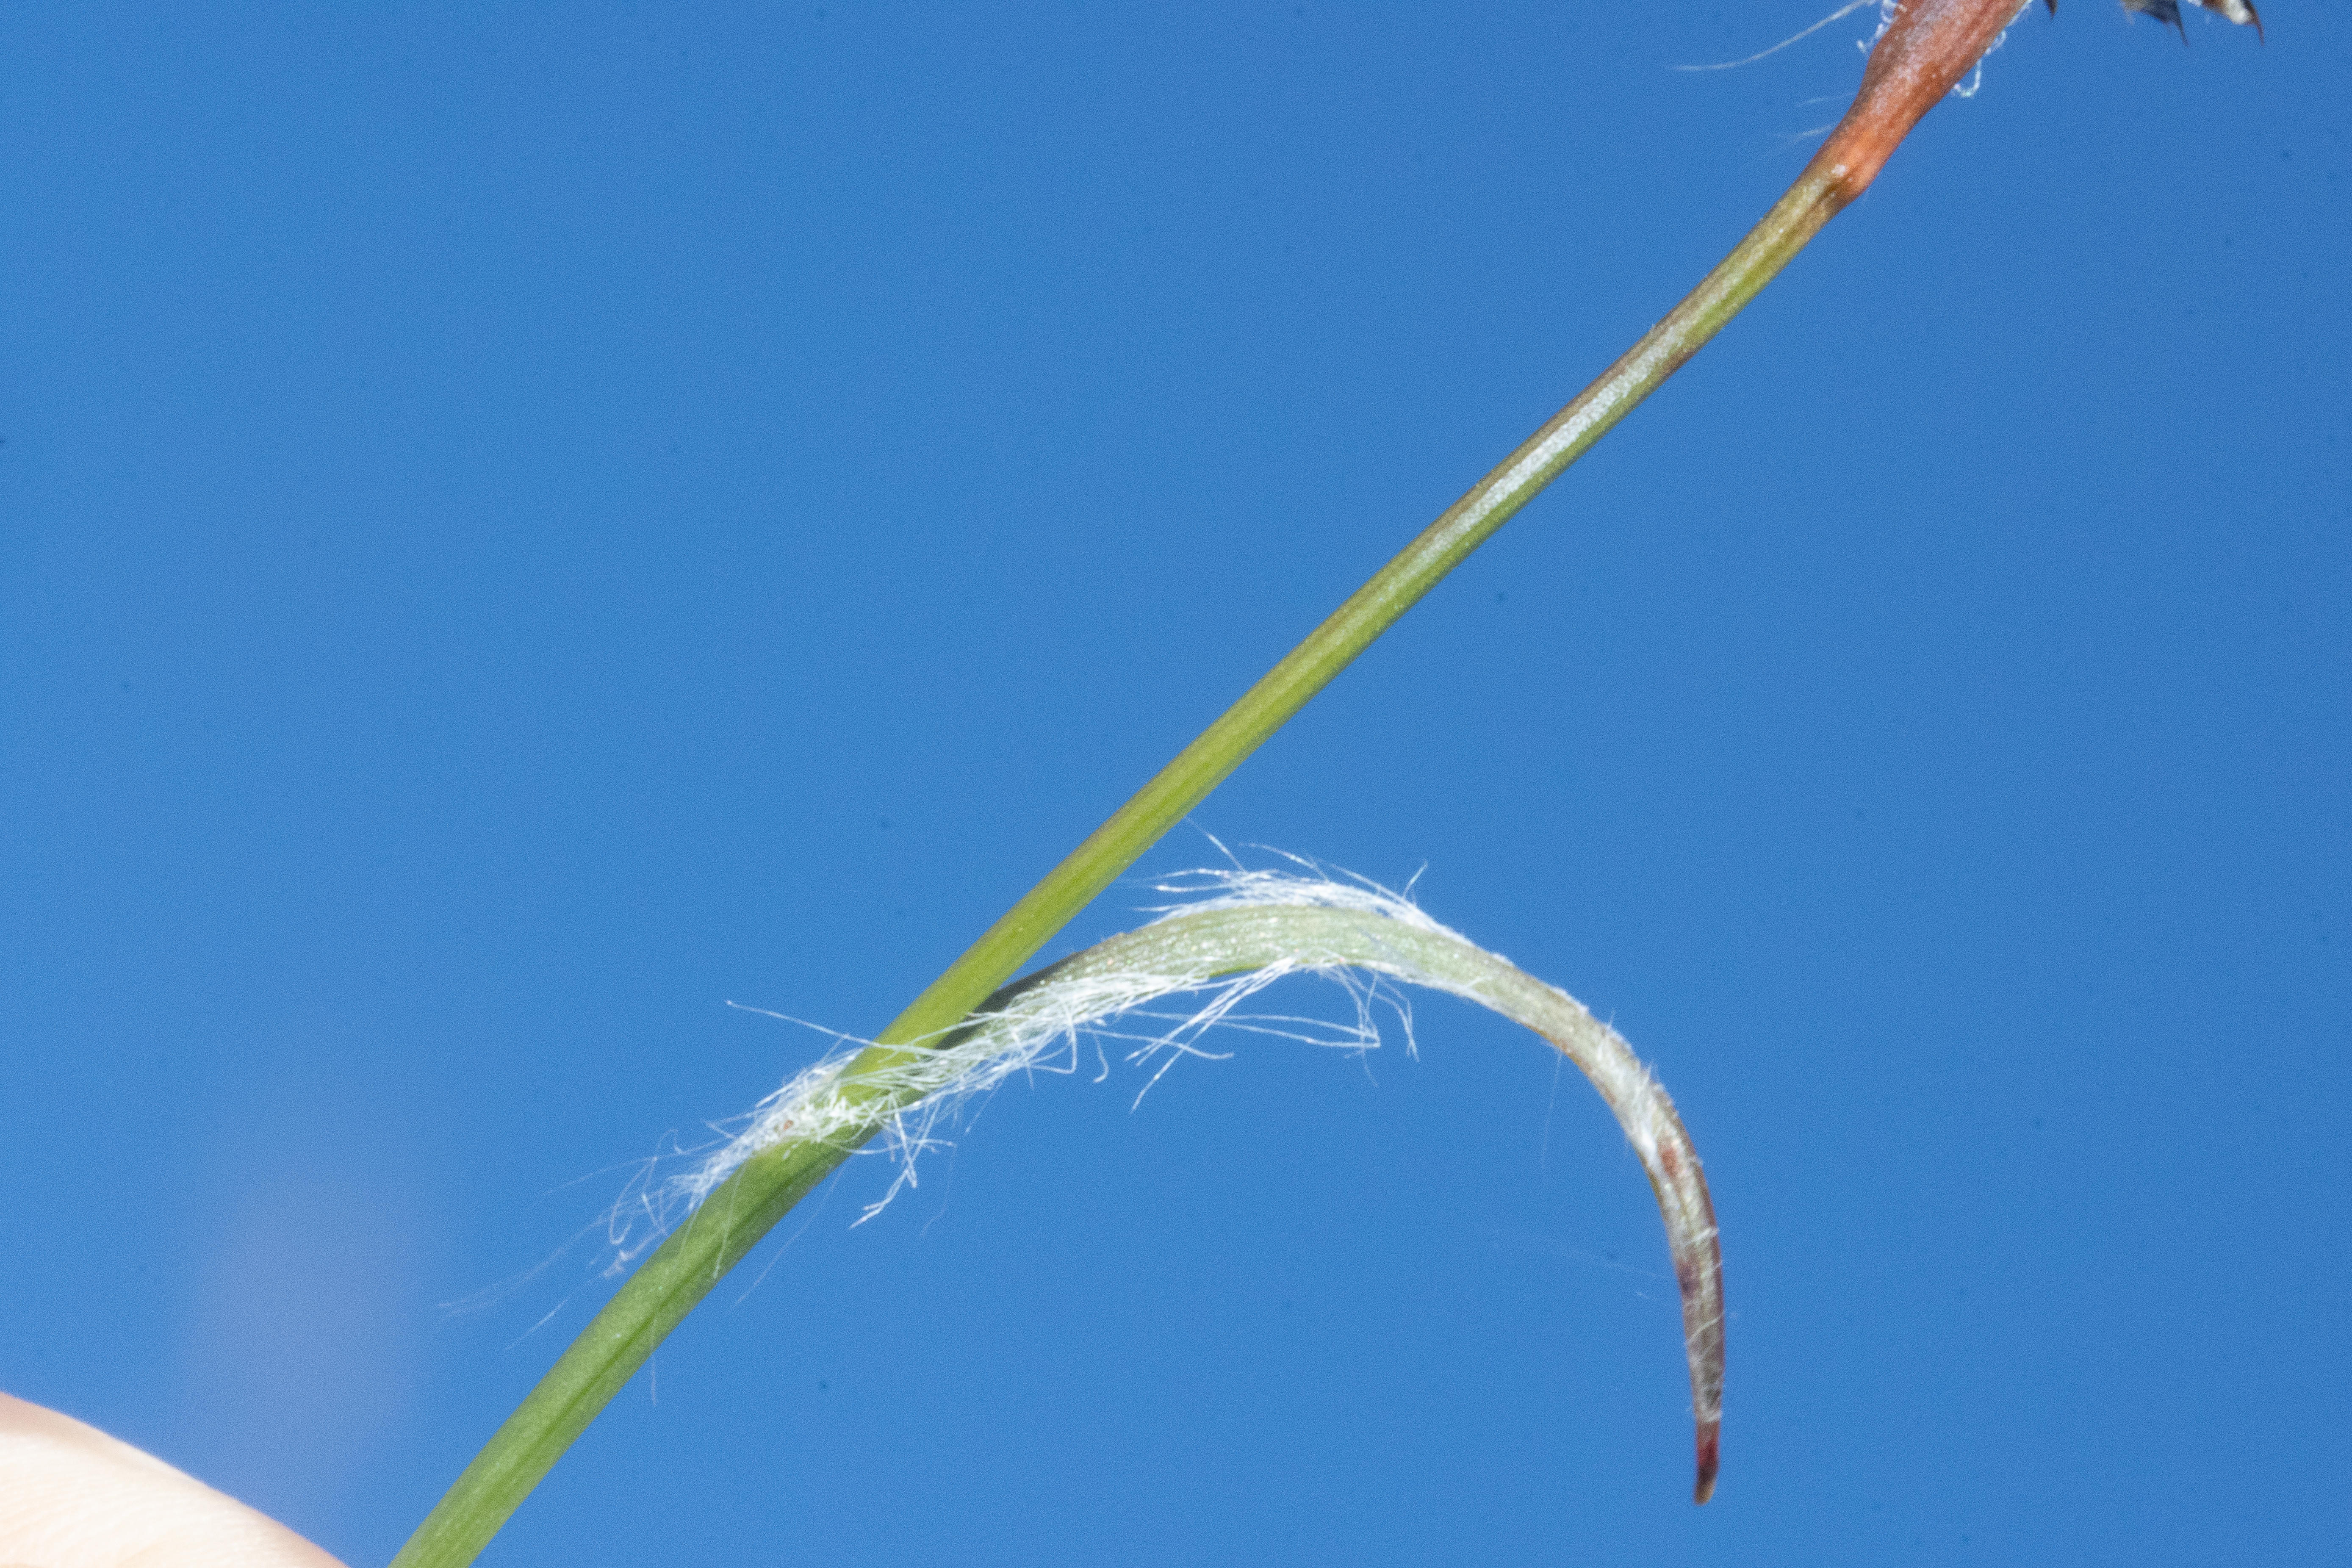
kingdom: Plantae
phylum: Tracheophyta
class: Liliopsida
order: Poales
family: Juncaceae
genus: Luzula
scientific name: Luzula campestris
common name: Mark-frytle
